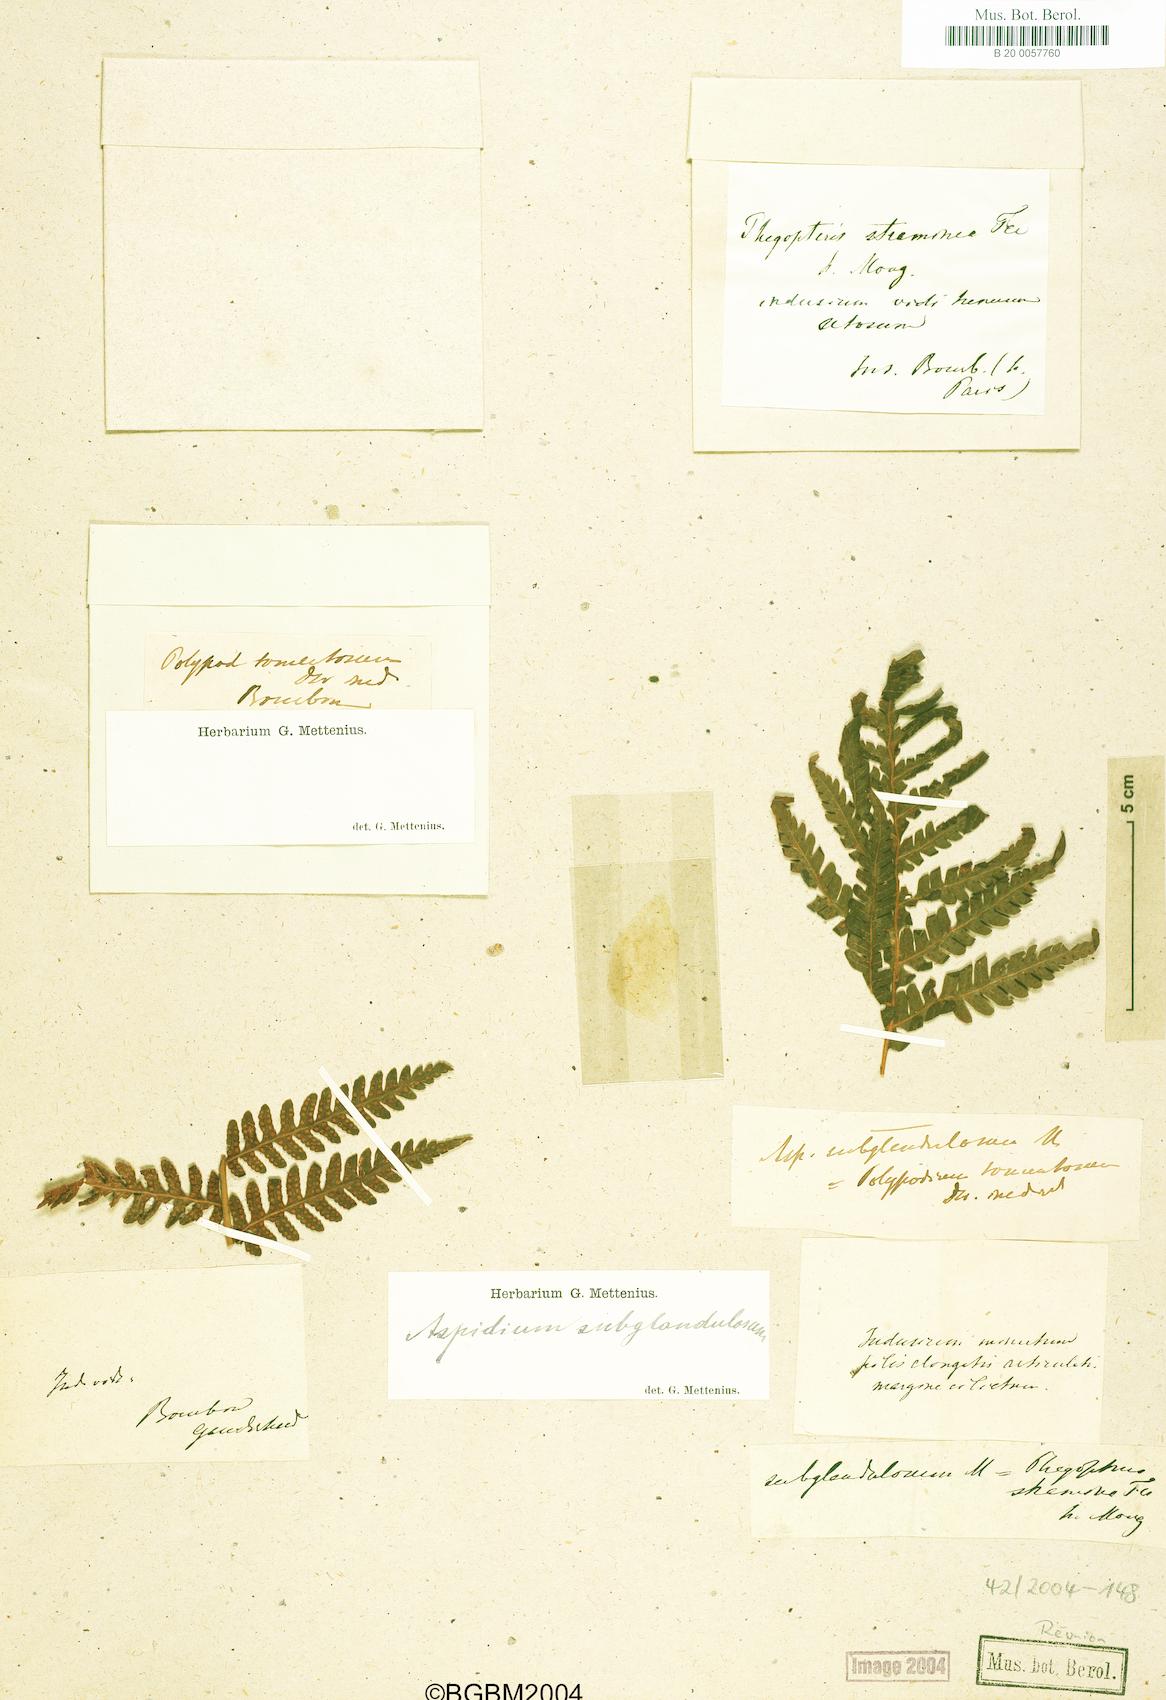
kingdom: Plantae
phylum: Tracheophyta
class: Polypodiopsida
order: Polypodiales
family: Thelypteridaceae
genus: Pseudophegopteris
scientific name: Pseudophegopteris aubertii
